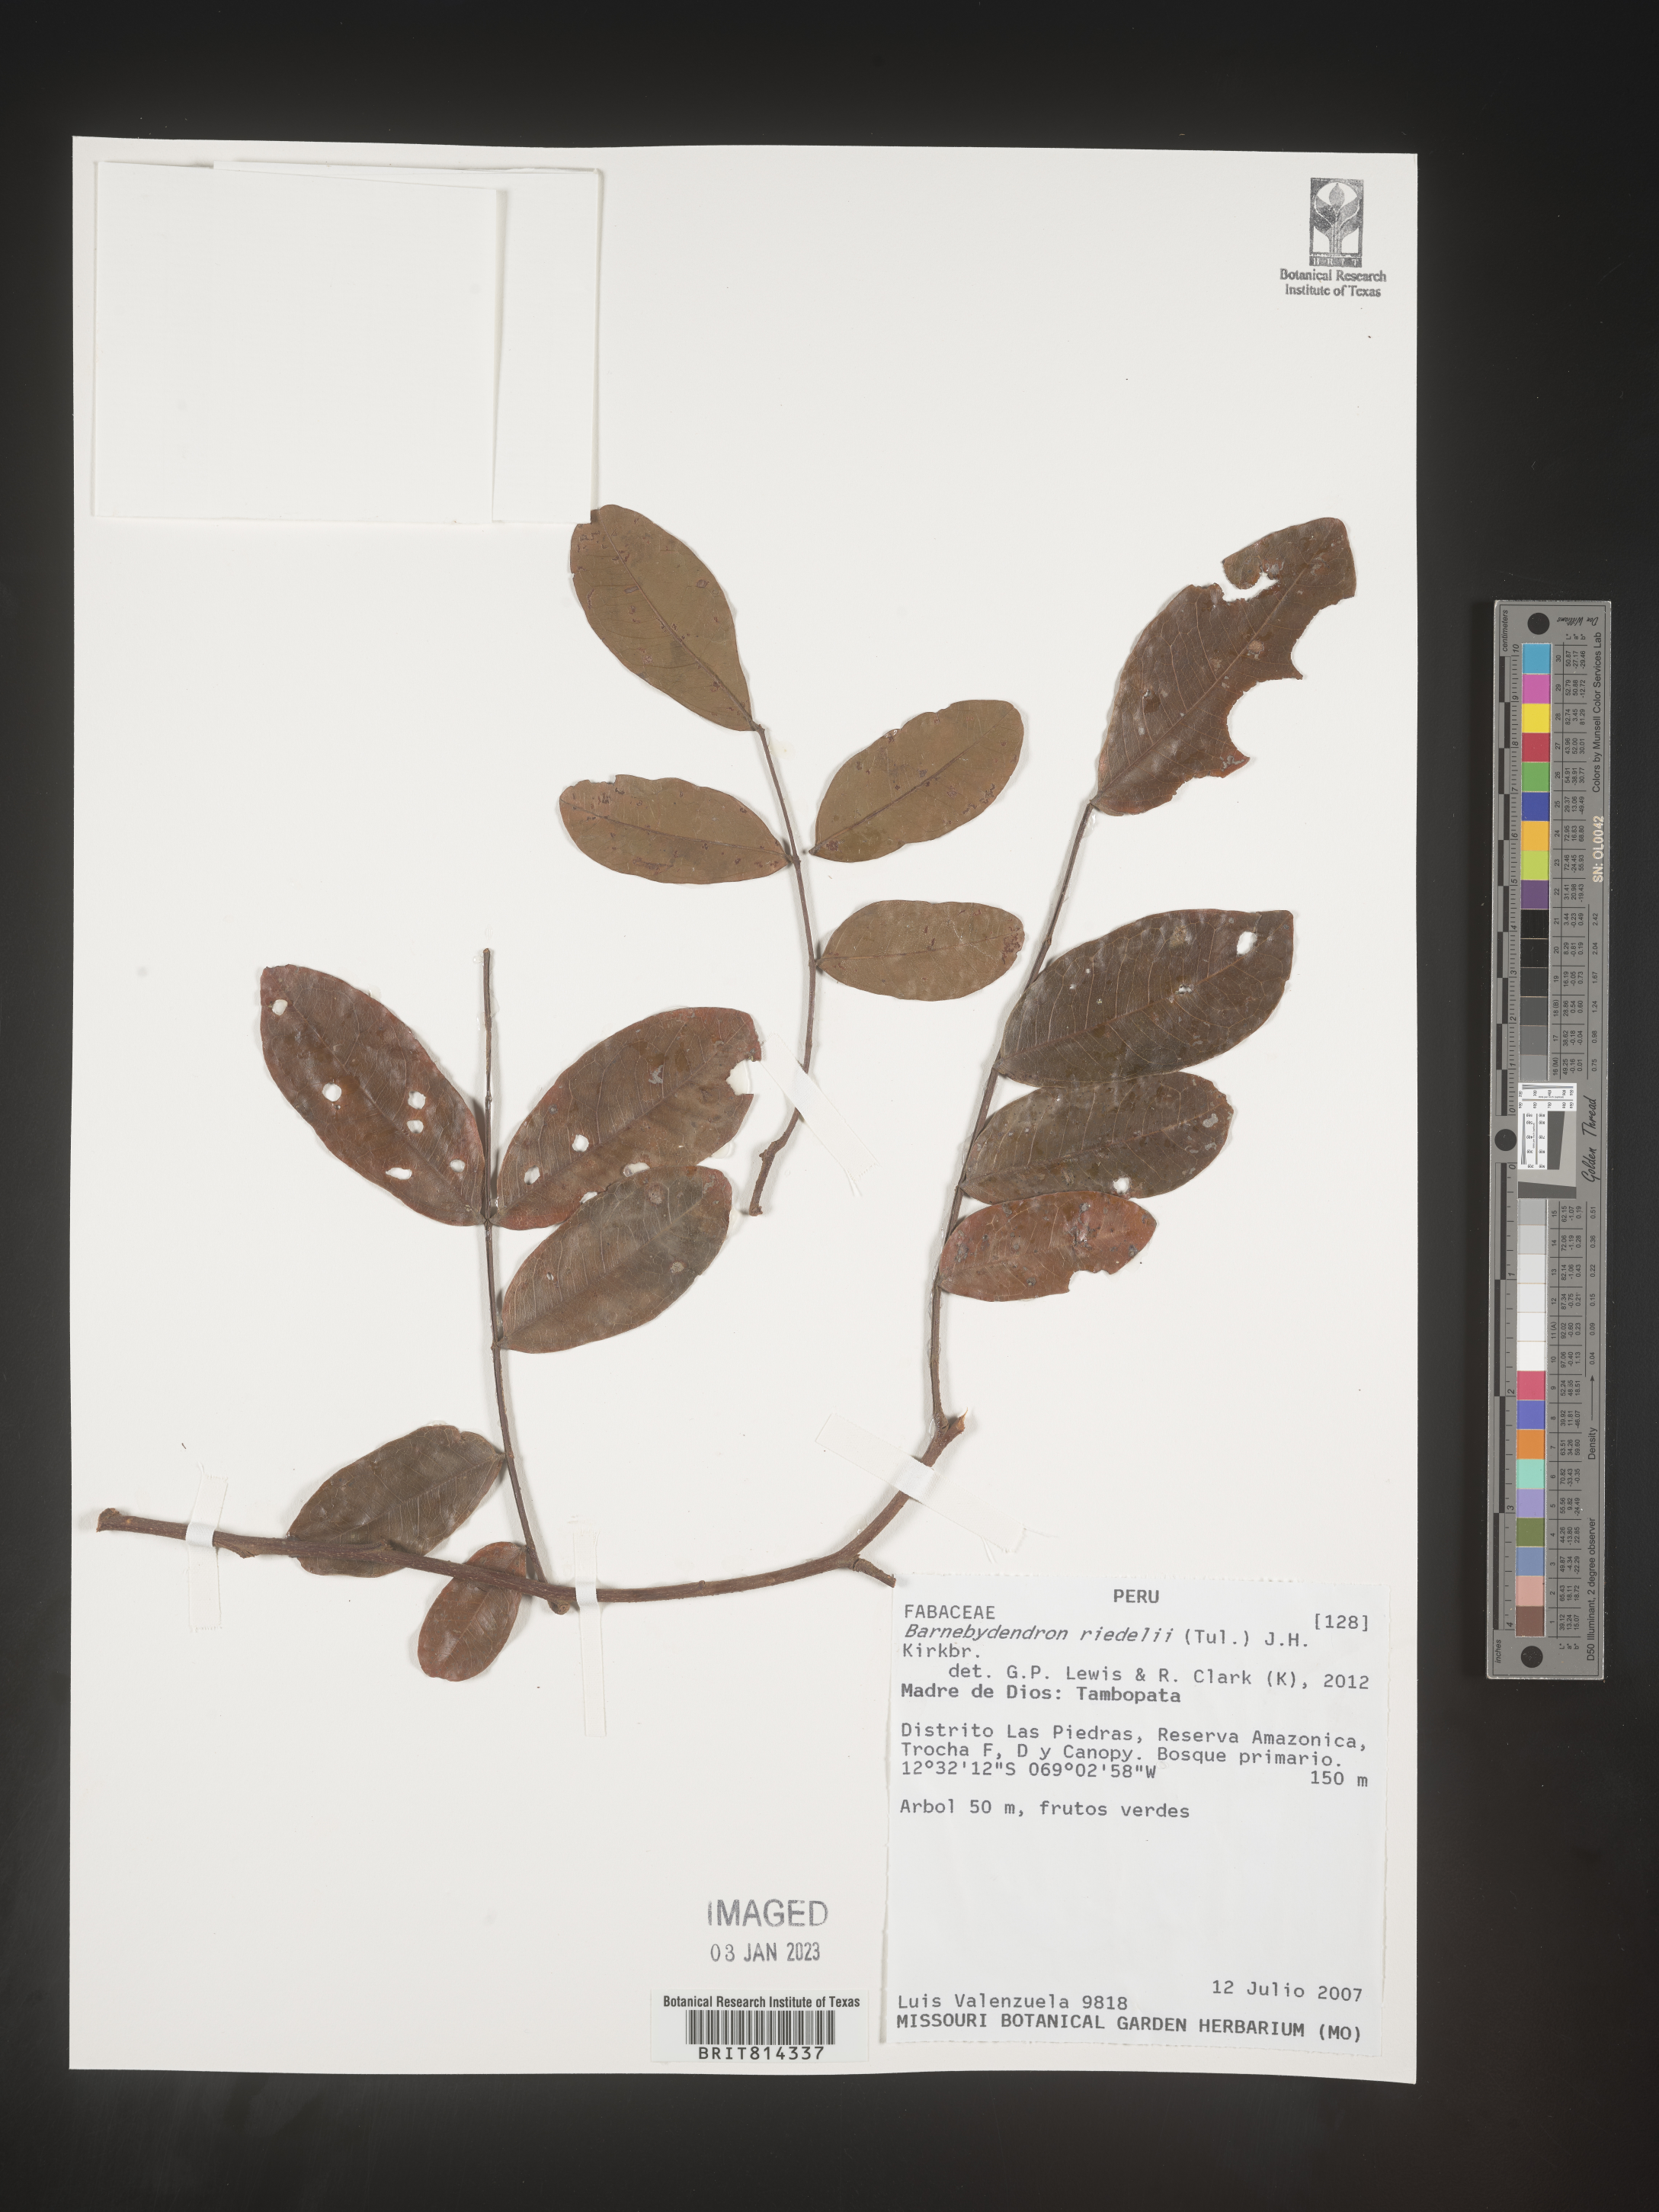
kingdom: Plantae
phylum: Tracheophyta
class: Magnoliopsida
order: Fabales
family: Fabaceae
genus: Barnebydendron
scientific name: Barnebydendron riedelii
